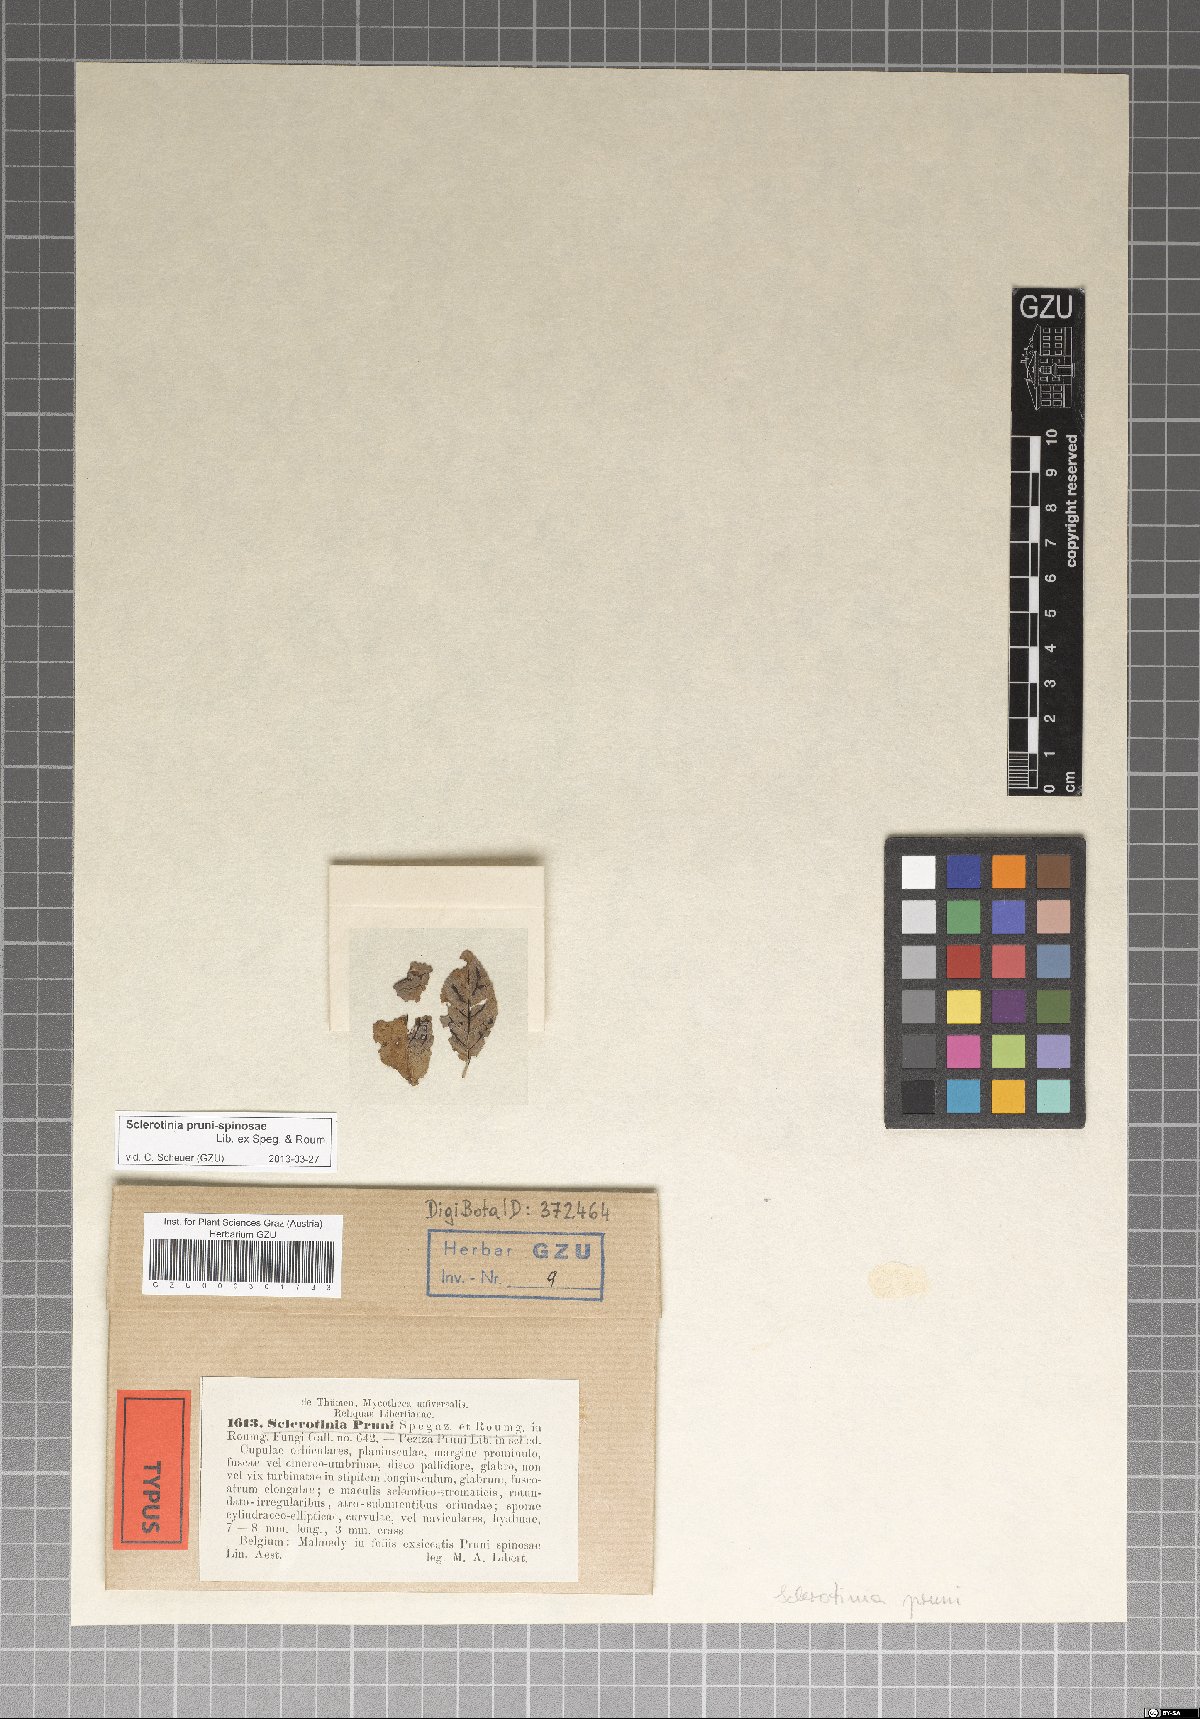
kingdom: Fungi
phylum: Ascomycota
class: Leotiomycetes
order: Helotiales
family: Sclerotiniaceae
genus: Stromatinia
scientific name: Stromatinia pruni-spinosae
